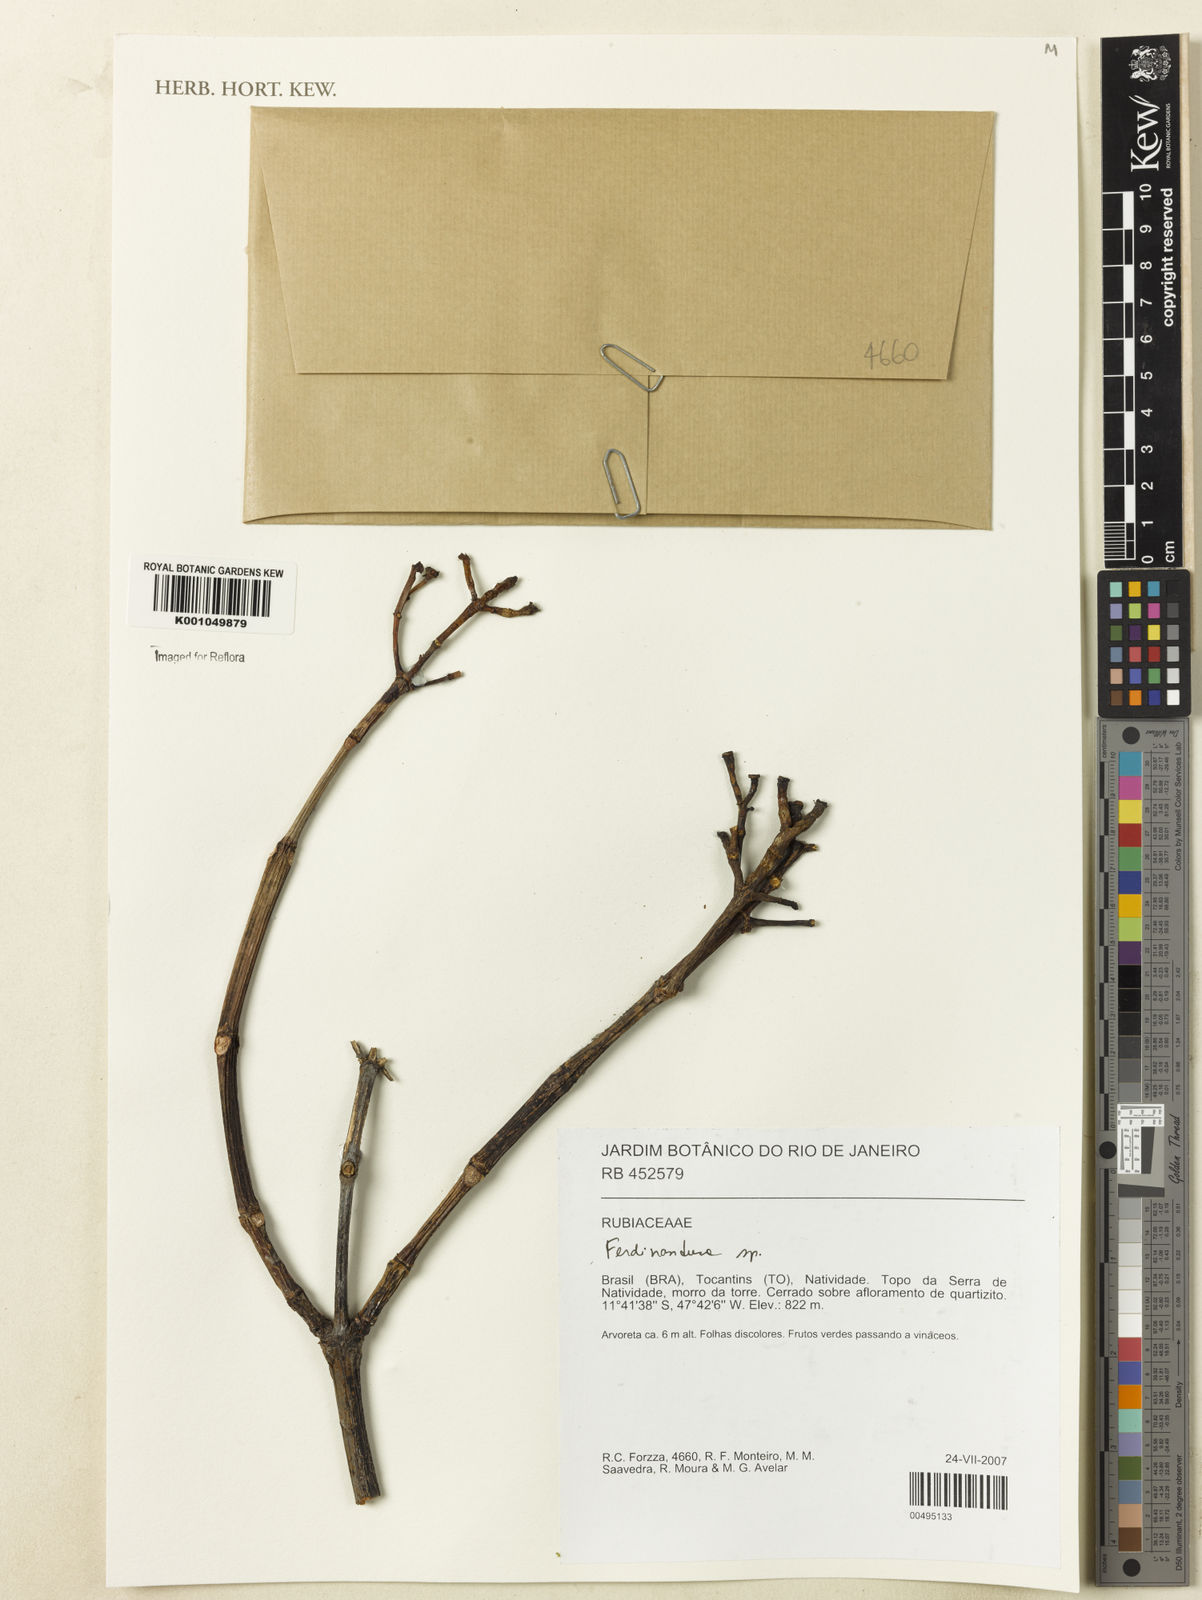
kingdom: Plantae
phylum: Tracheophyta
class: Magnoliopsida
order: Gentianales
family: Rubiaceae
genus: Ferdinandusa
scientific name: Ferdinandusa
